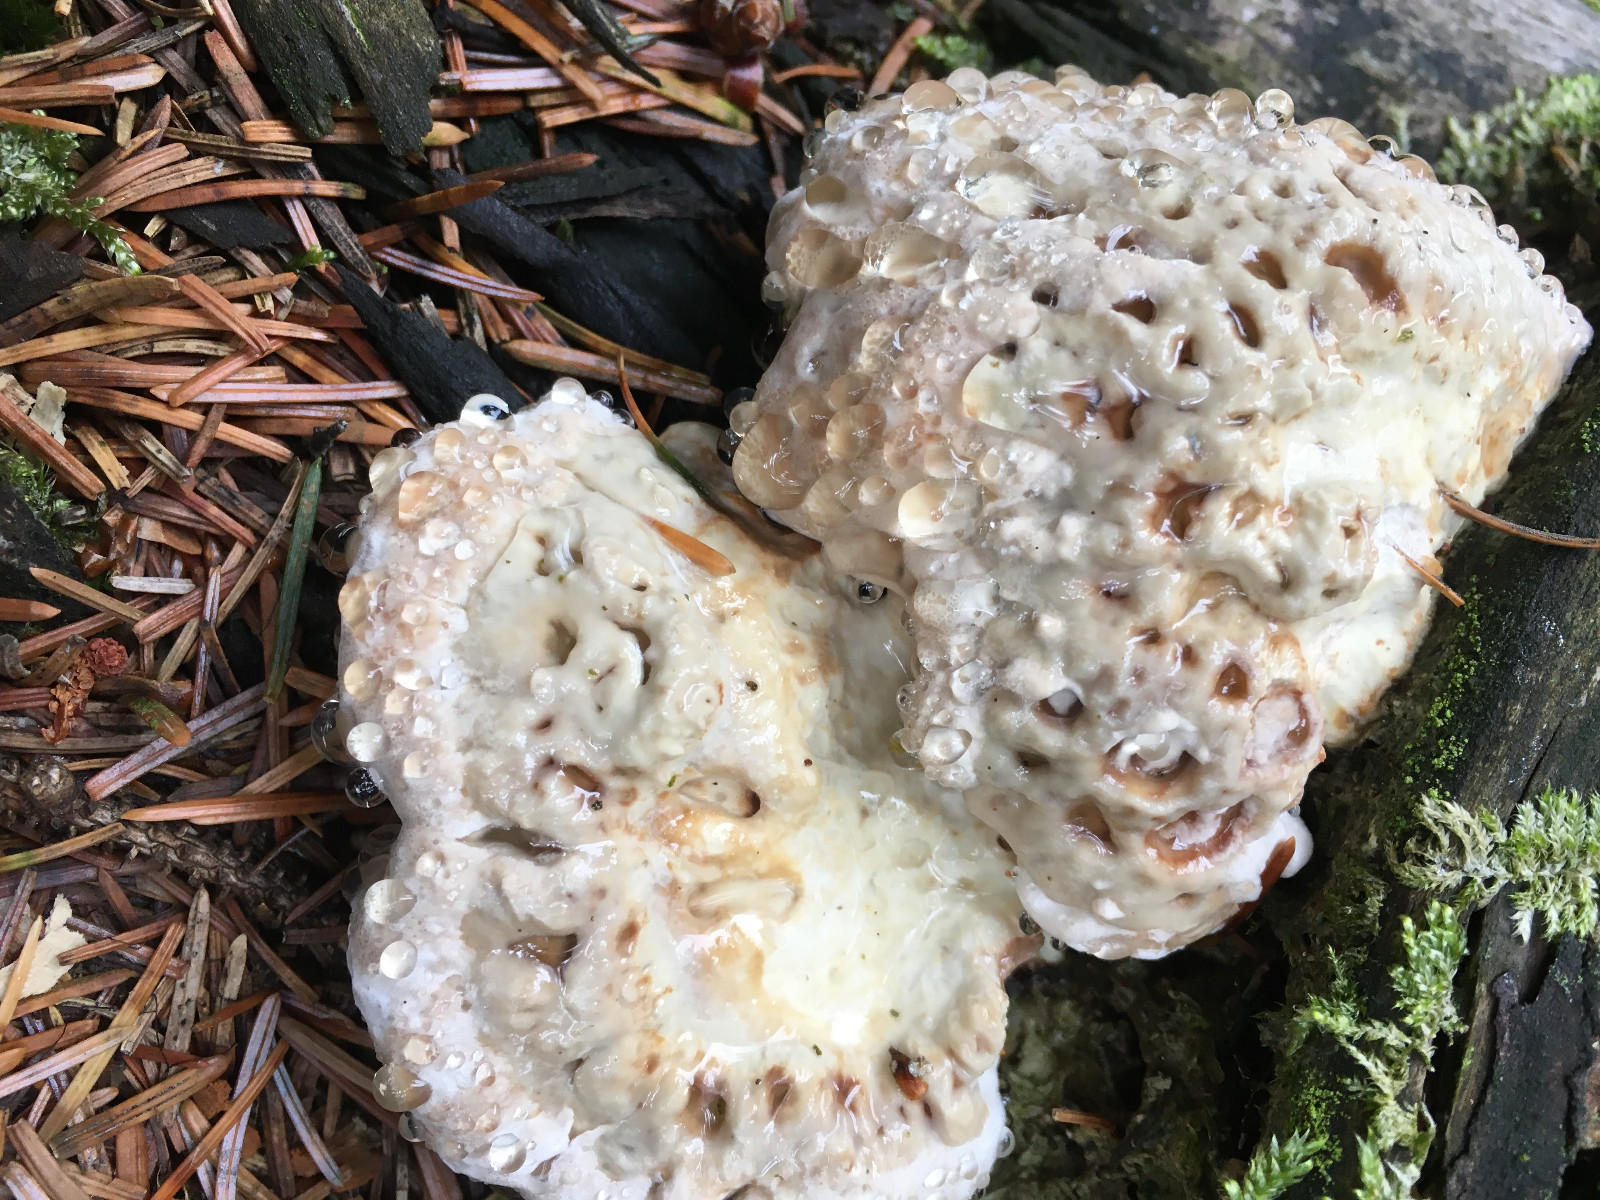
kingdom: Fungi
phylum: Basidiomycota
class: Agaricomycetes
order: Polyporales
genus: Calcipostia
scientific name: Calcipostia guttulata
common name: dråbe-kødporesvamp
